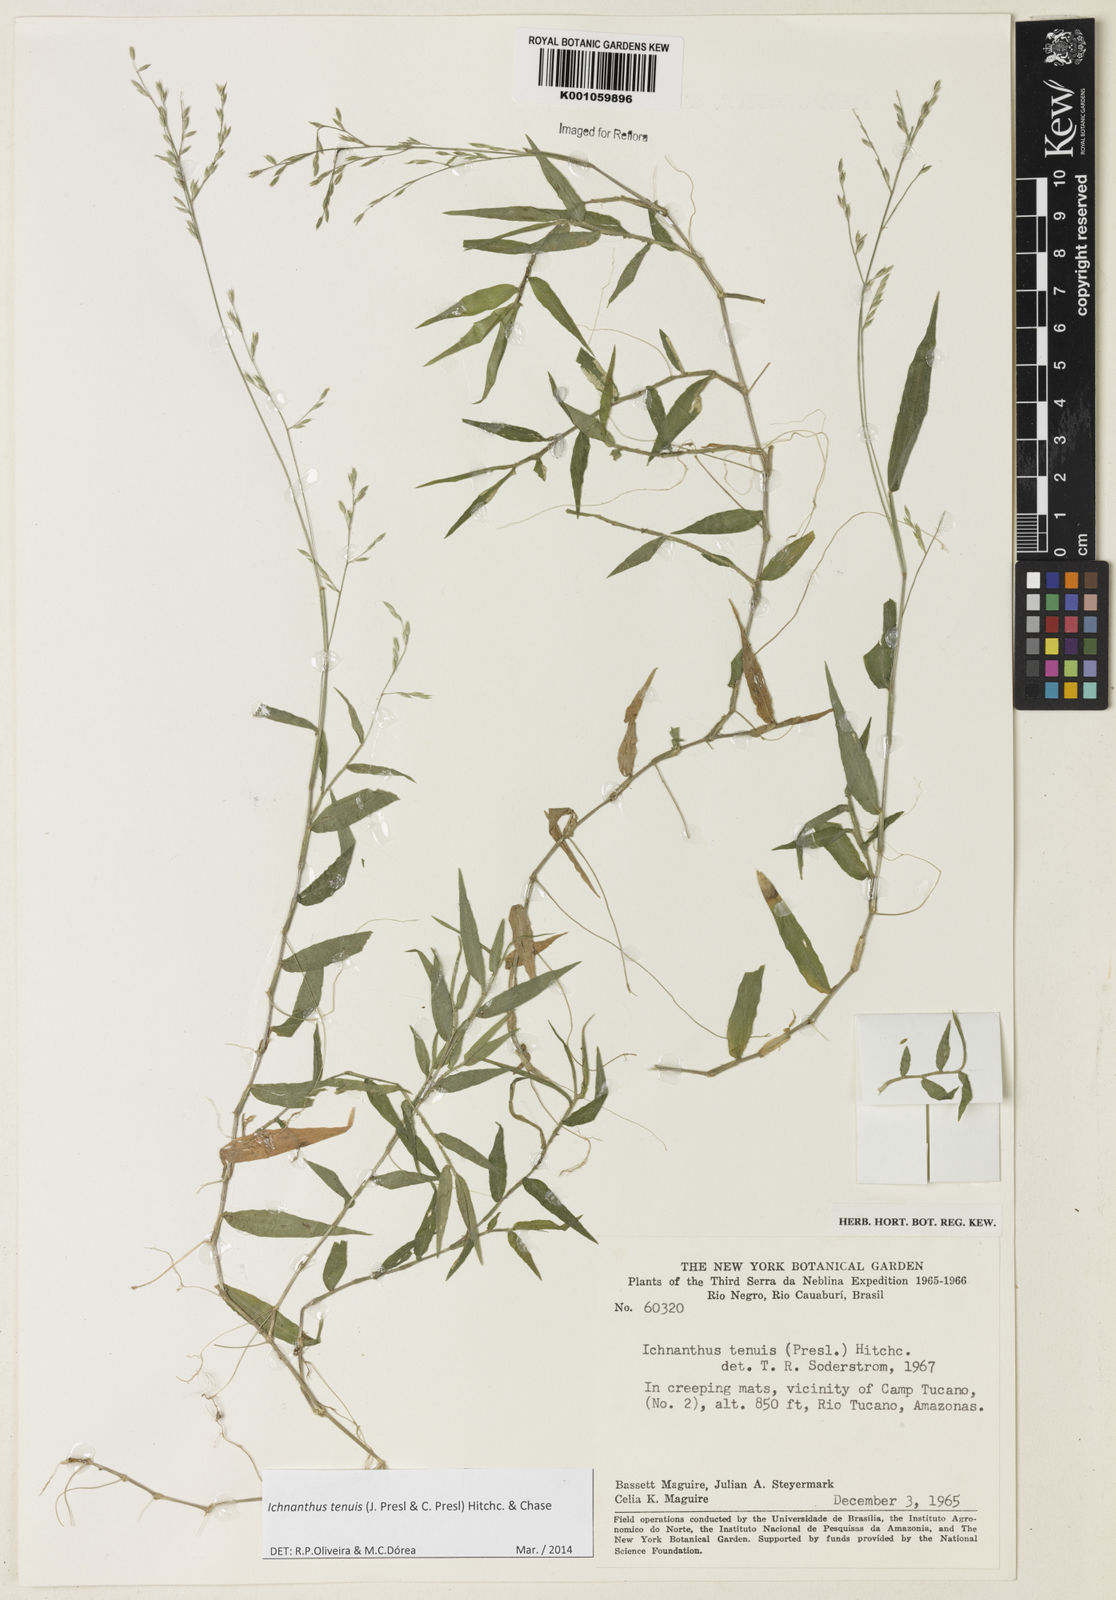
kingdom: Plantae
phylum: Tracheophyta
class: Liliopsida
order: Poales
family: Poaceae
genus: Ichnanthus
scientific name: Ichnanthus tenuis
